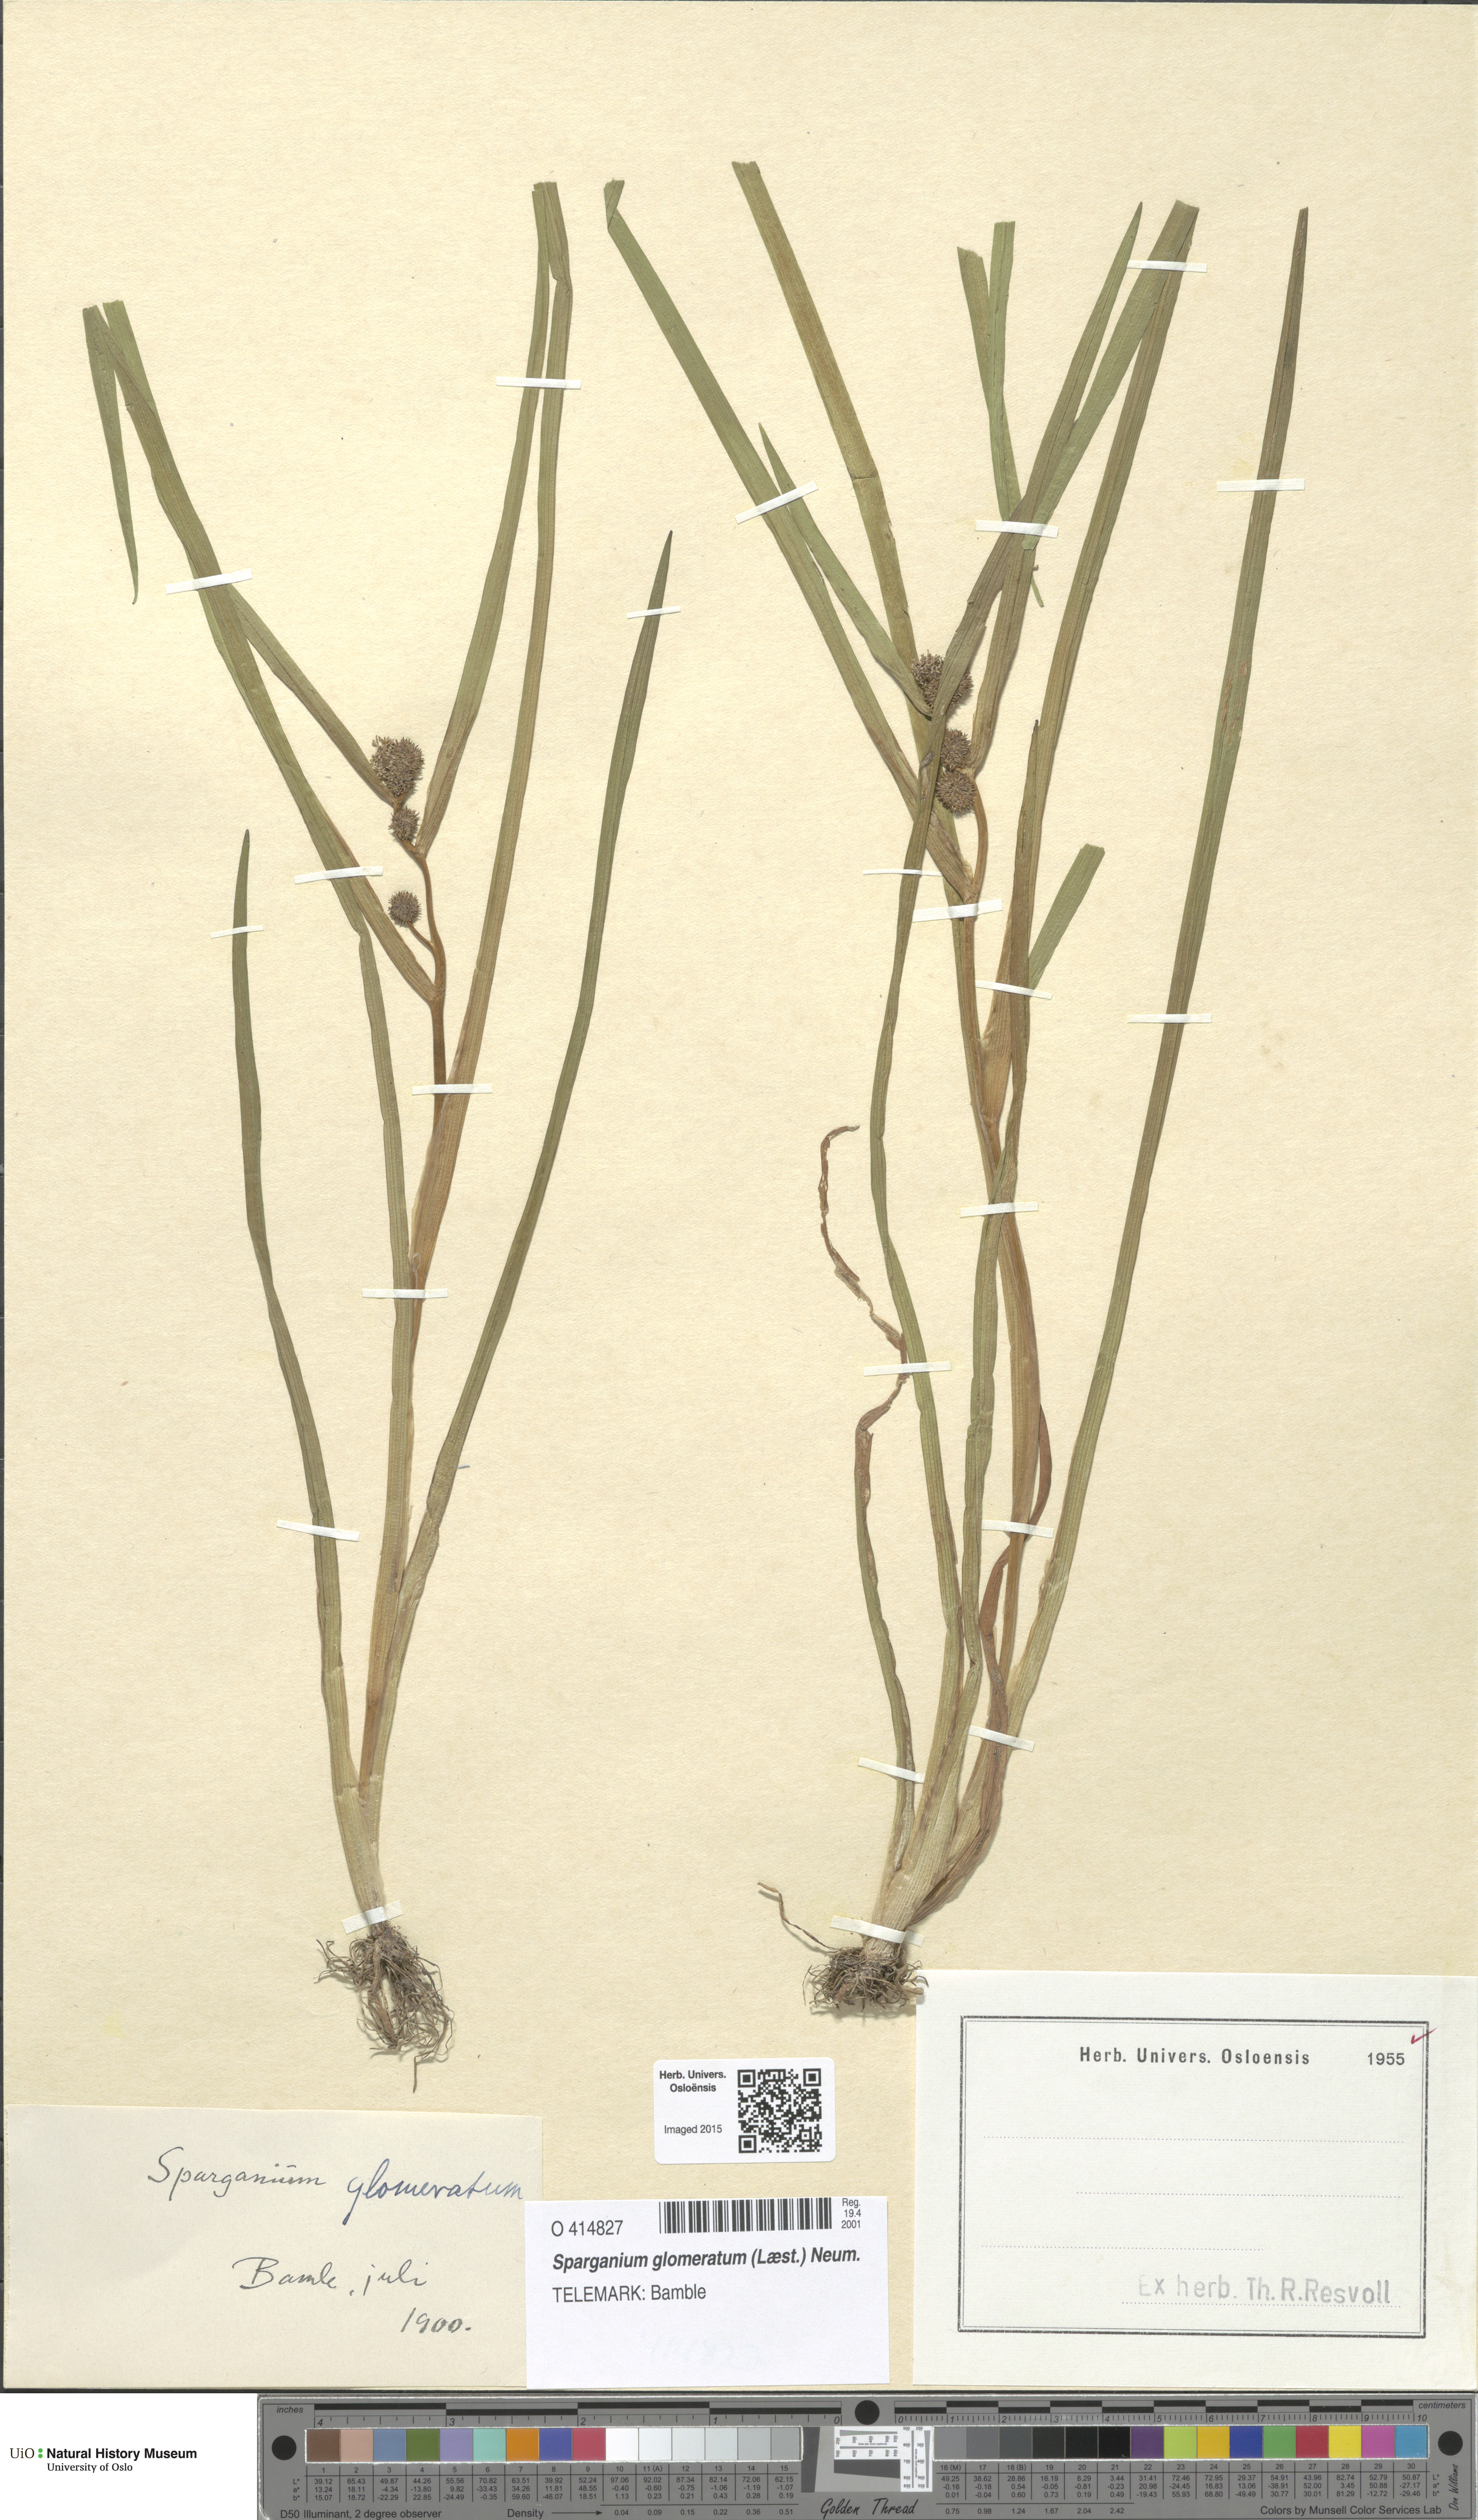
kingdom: Plantae
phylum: Tracheophyta
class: Liliopsida
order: Poales
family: Typhaceae
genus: Sparganium
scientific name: Sparganium glomeratum
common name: Clustered burreed
